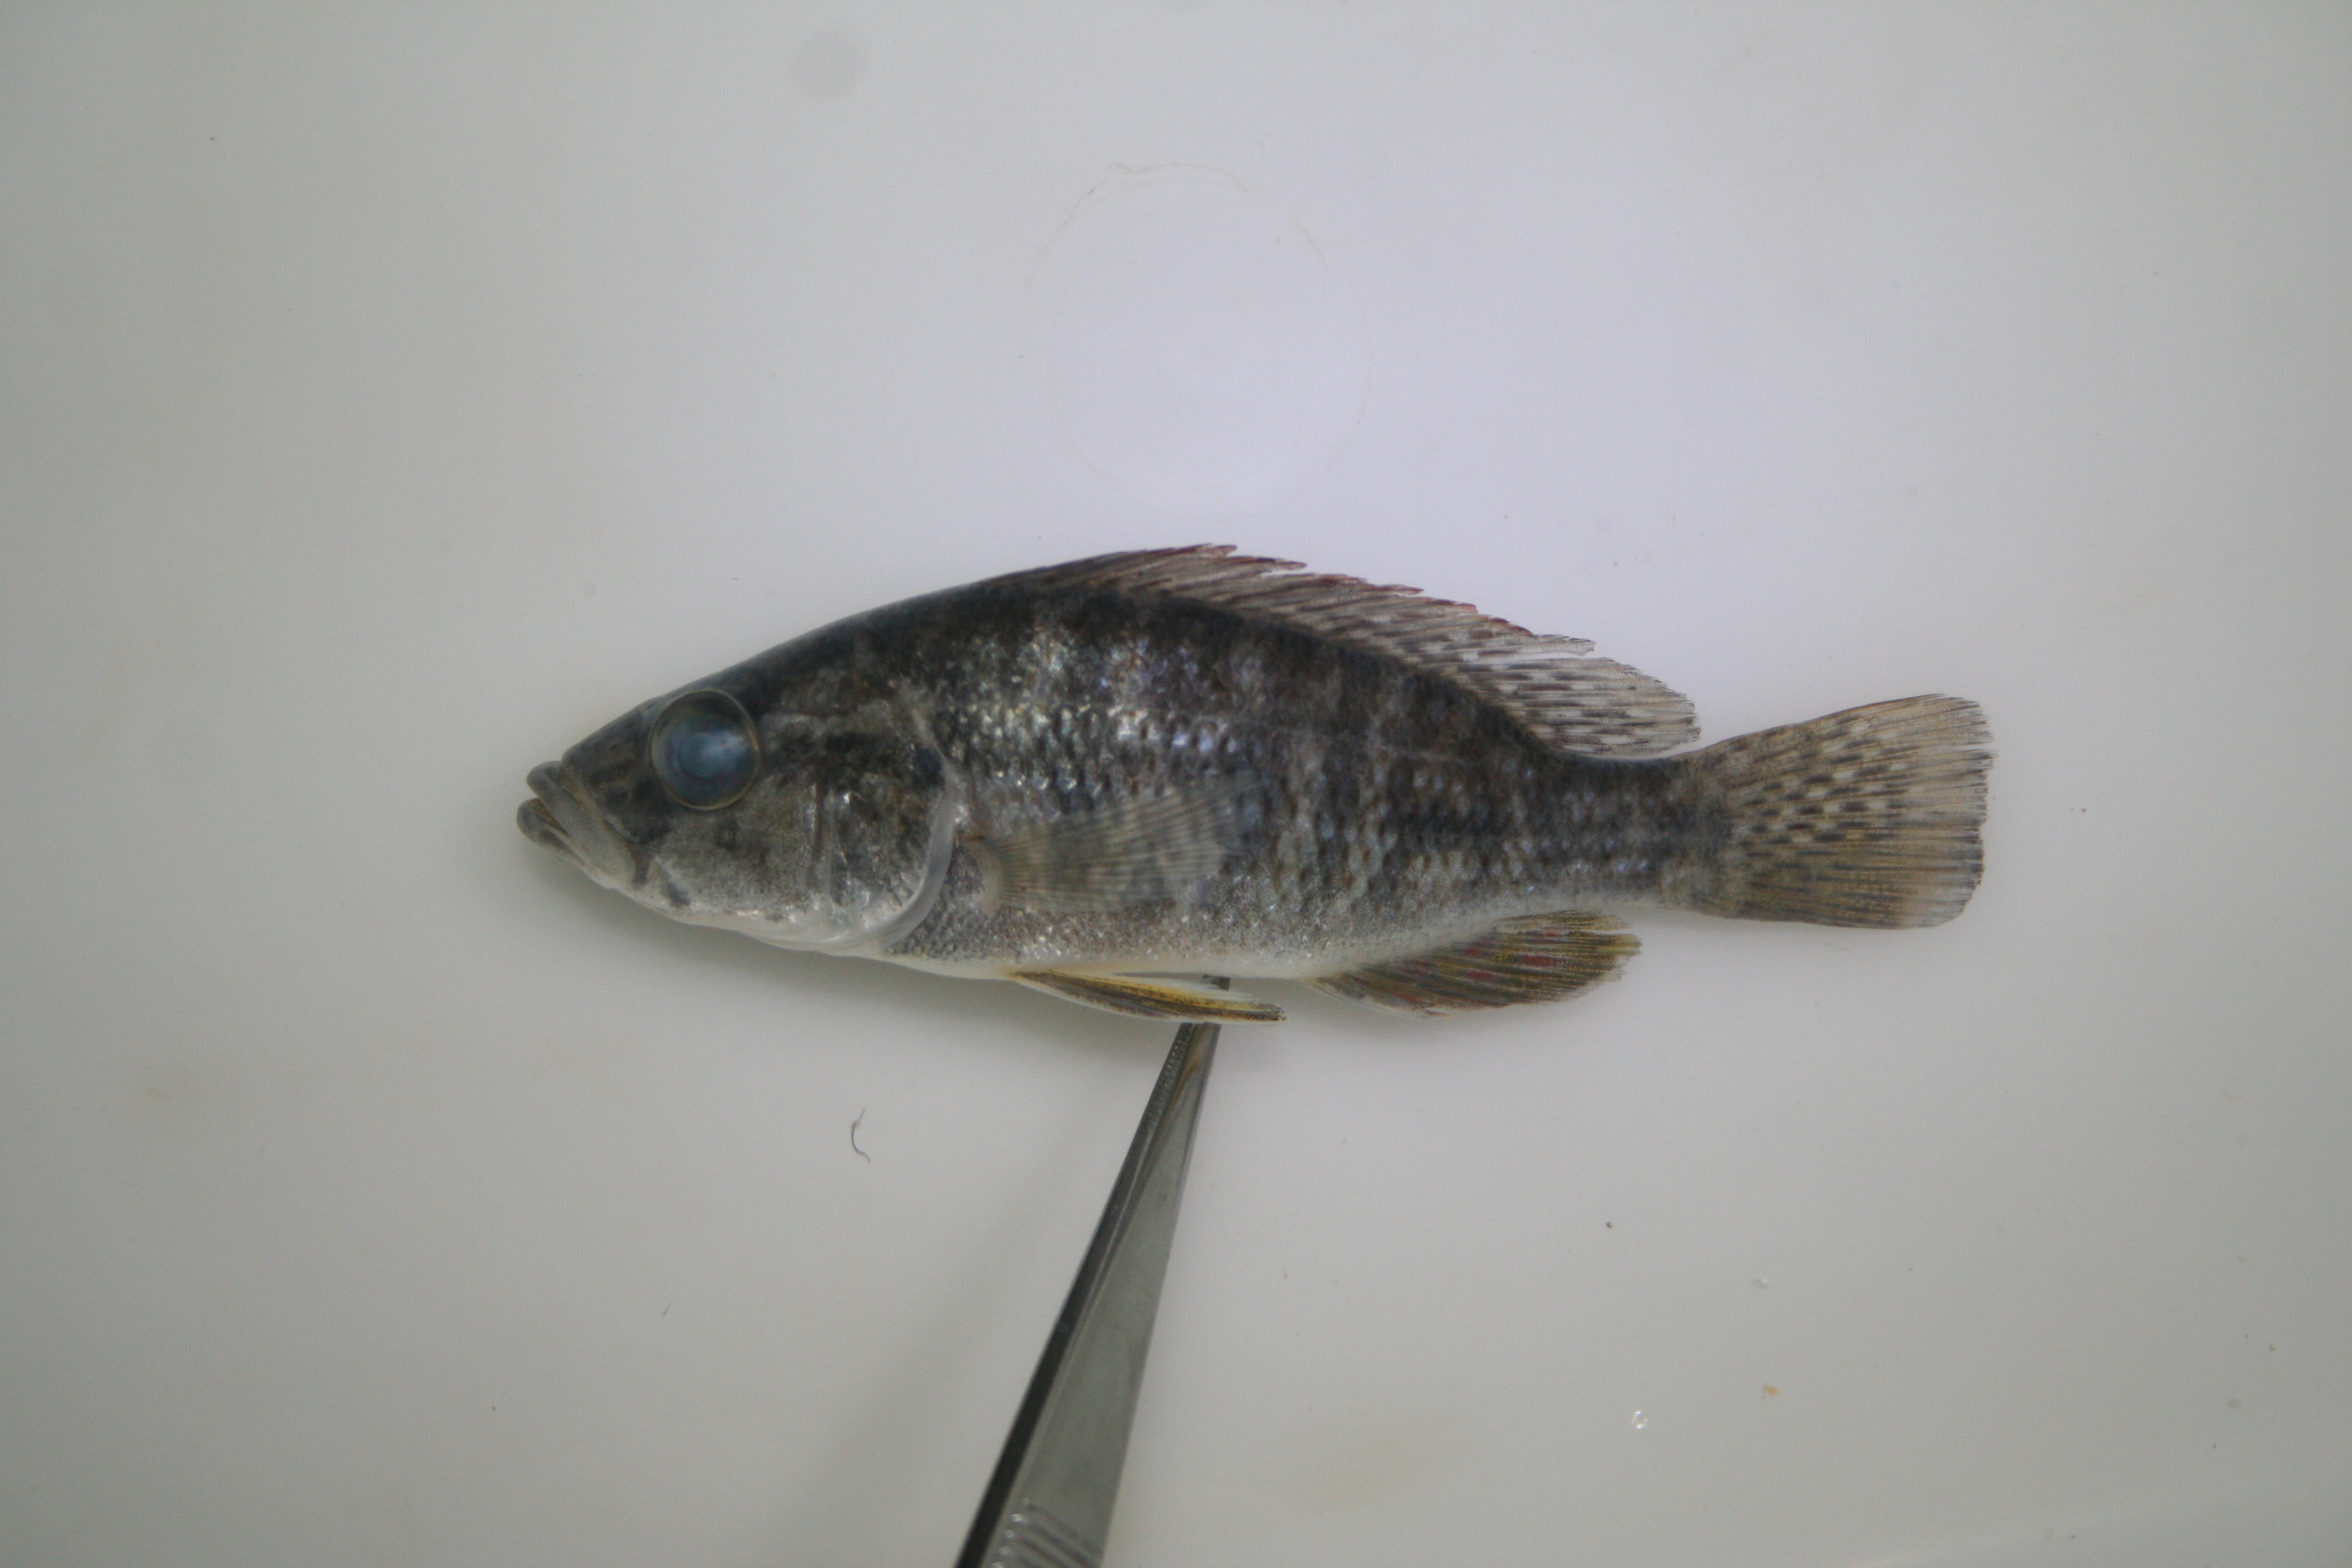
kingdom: Animalia
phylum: Chordata
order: Perciformes
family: Cichlidae
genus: Serranochromis
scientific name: Serranochromis
